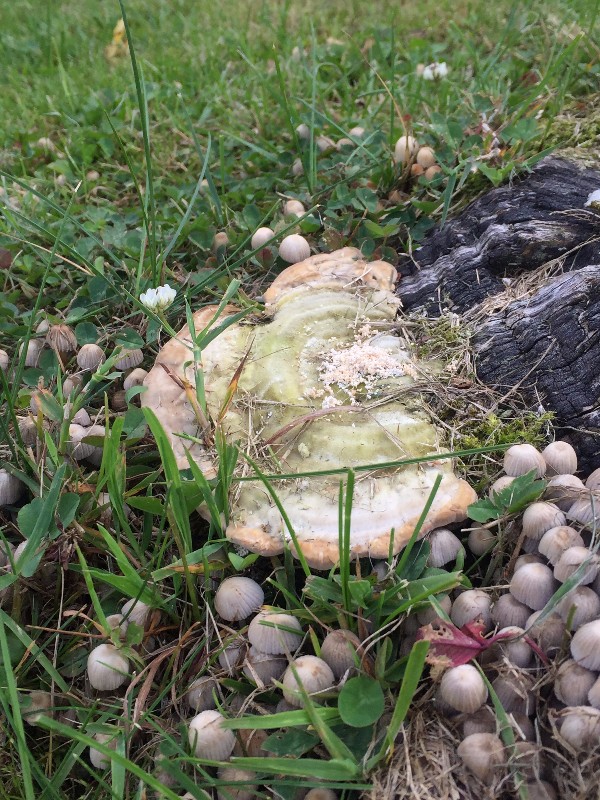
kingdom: Fungi
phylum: Basidiomycota
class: Agaricomycetes
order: Polyporales
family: Polyporaceae
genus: Trametes
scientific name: Trametes hirsuta
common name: håret læderporesvamp
